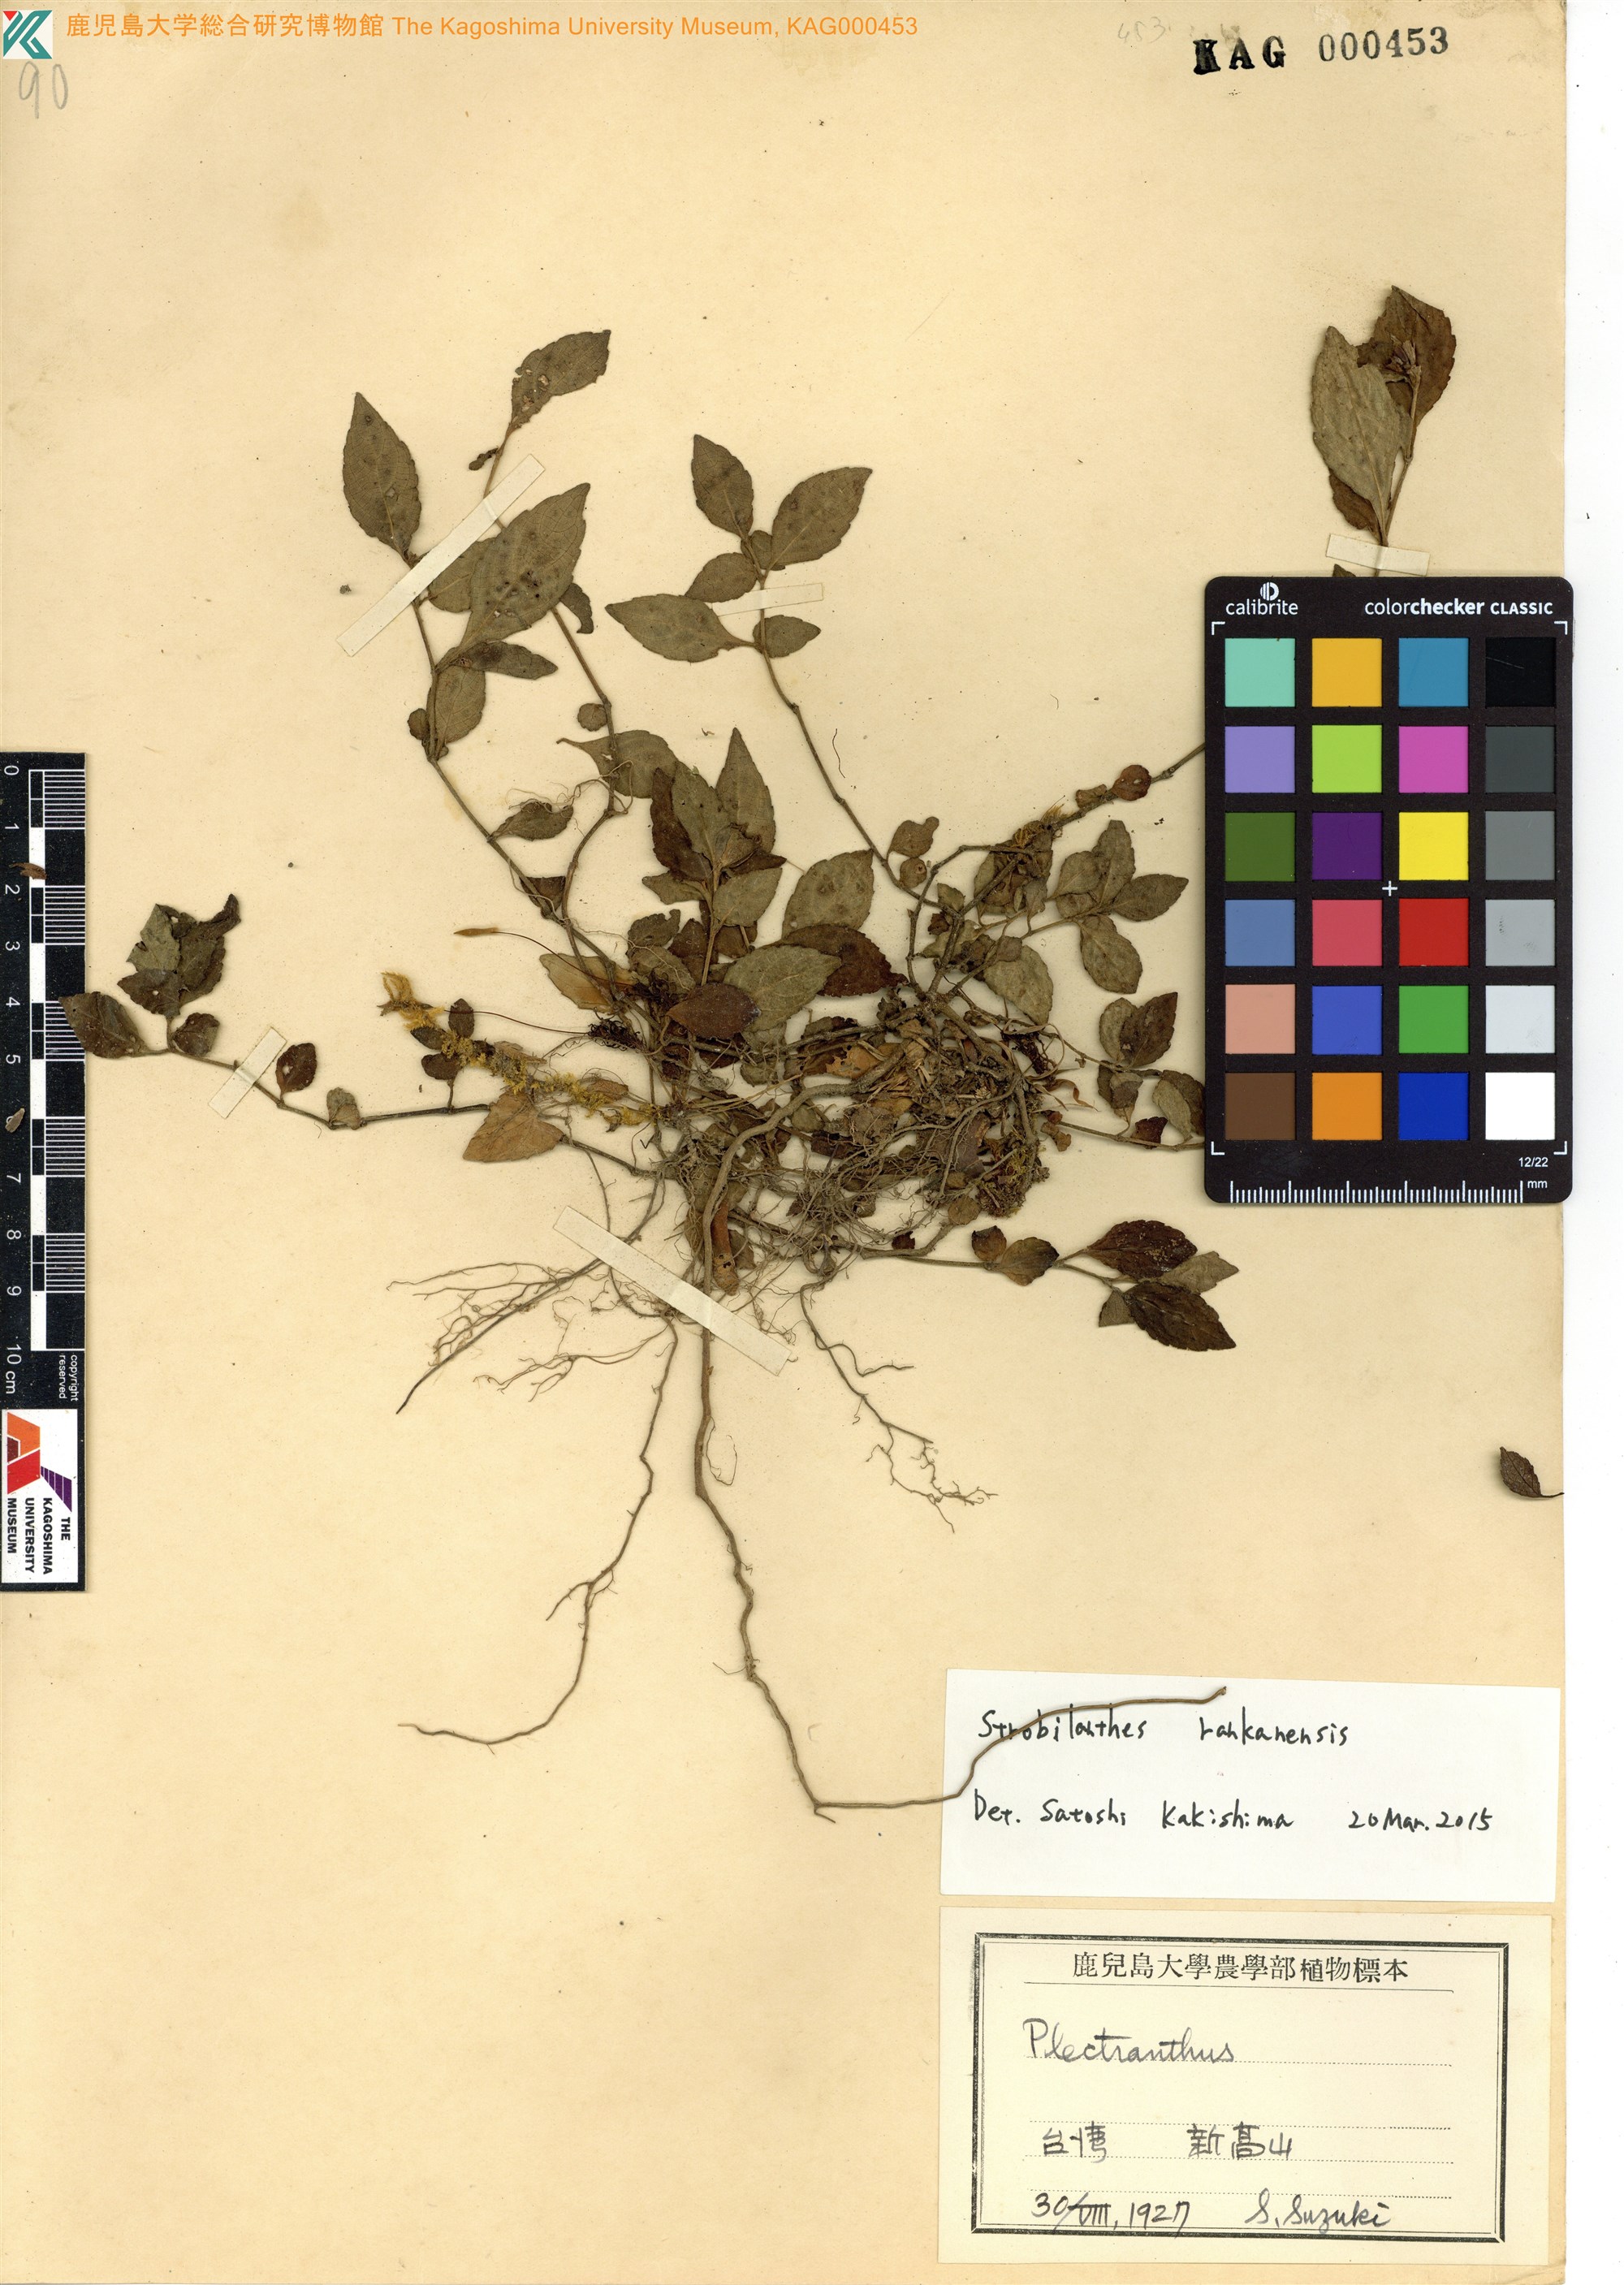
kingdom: Plantae
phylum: Tracheophyta
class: Magnoliopsida
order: Lamiales
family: Acanthaceae
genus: Strobilanthes
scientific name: Strobilanthes rankanensis
